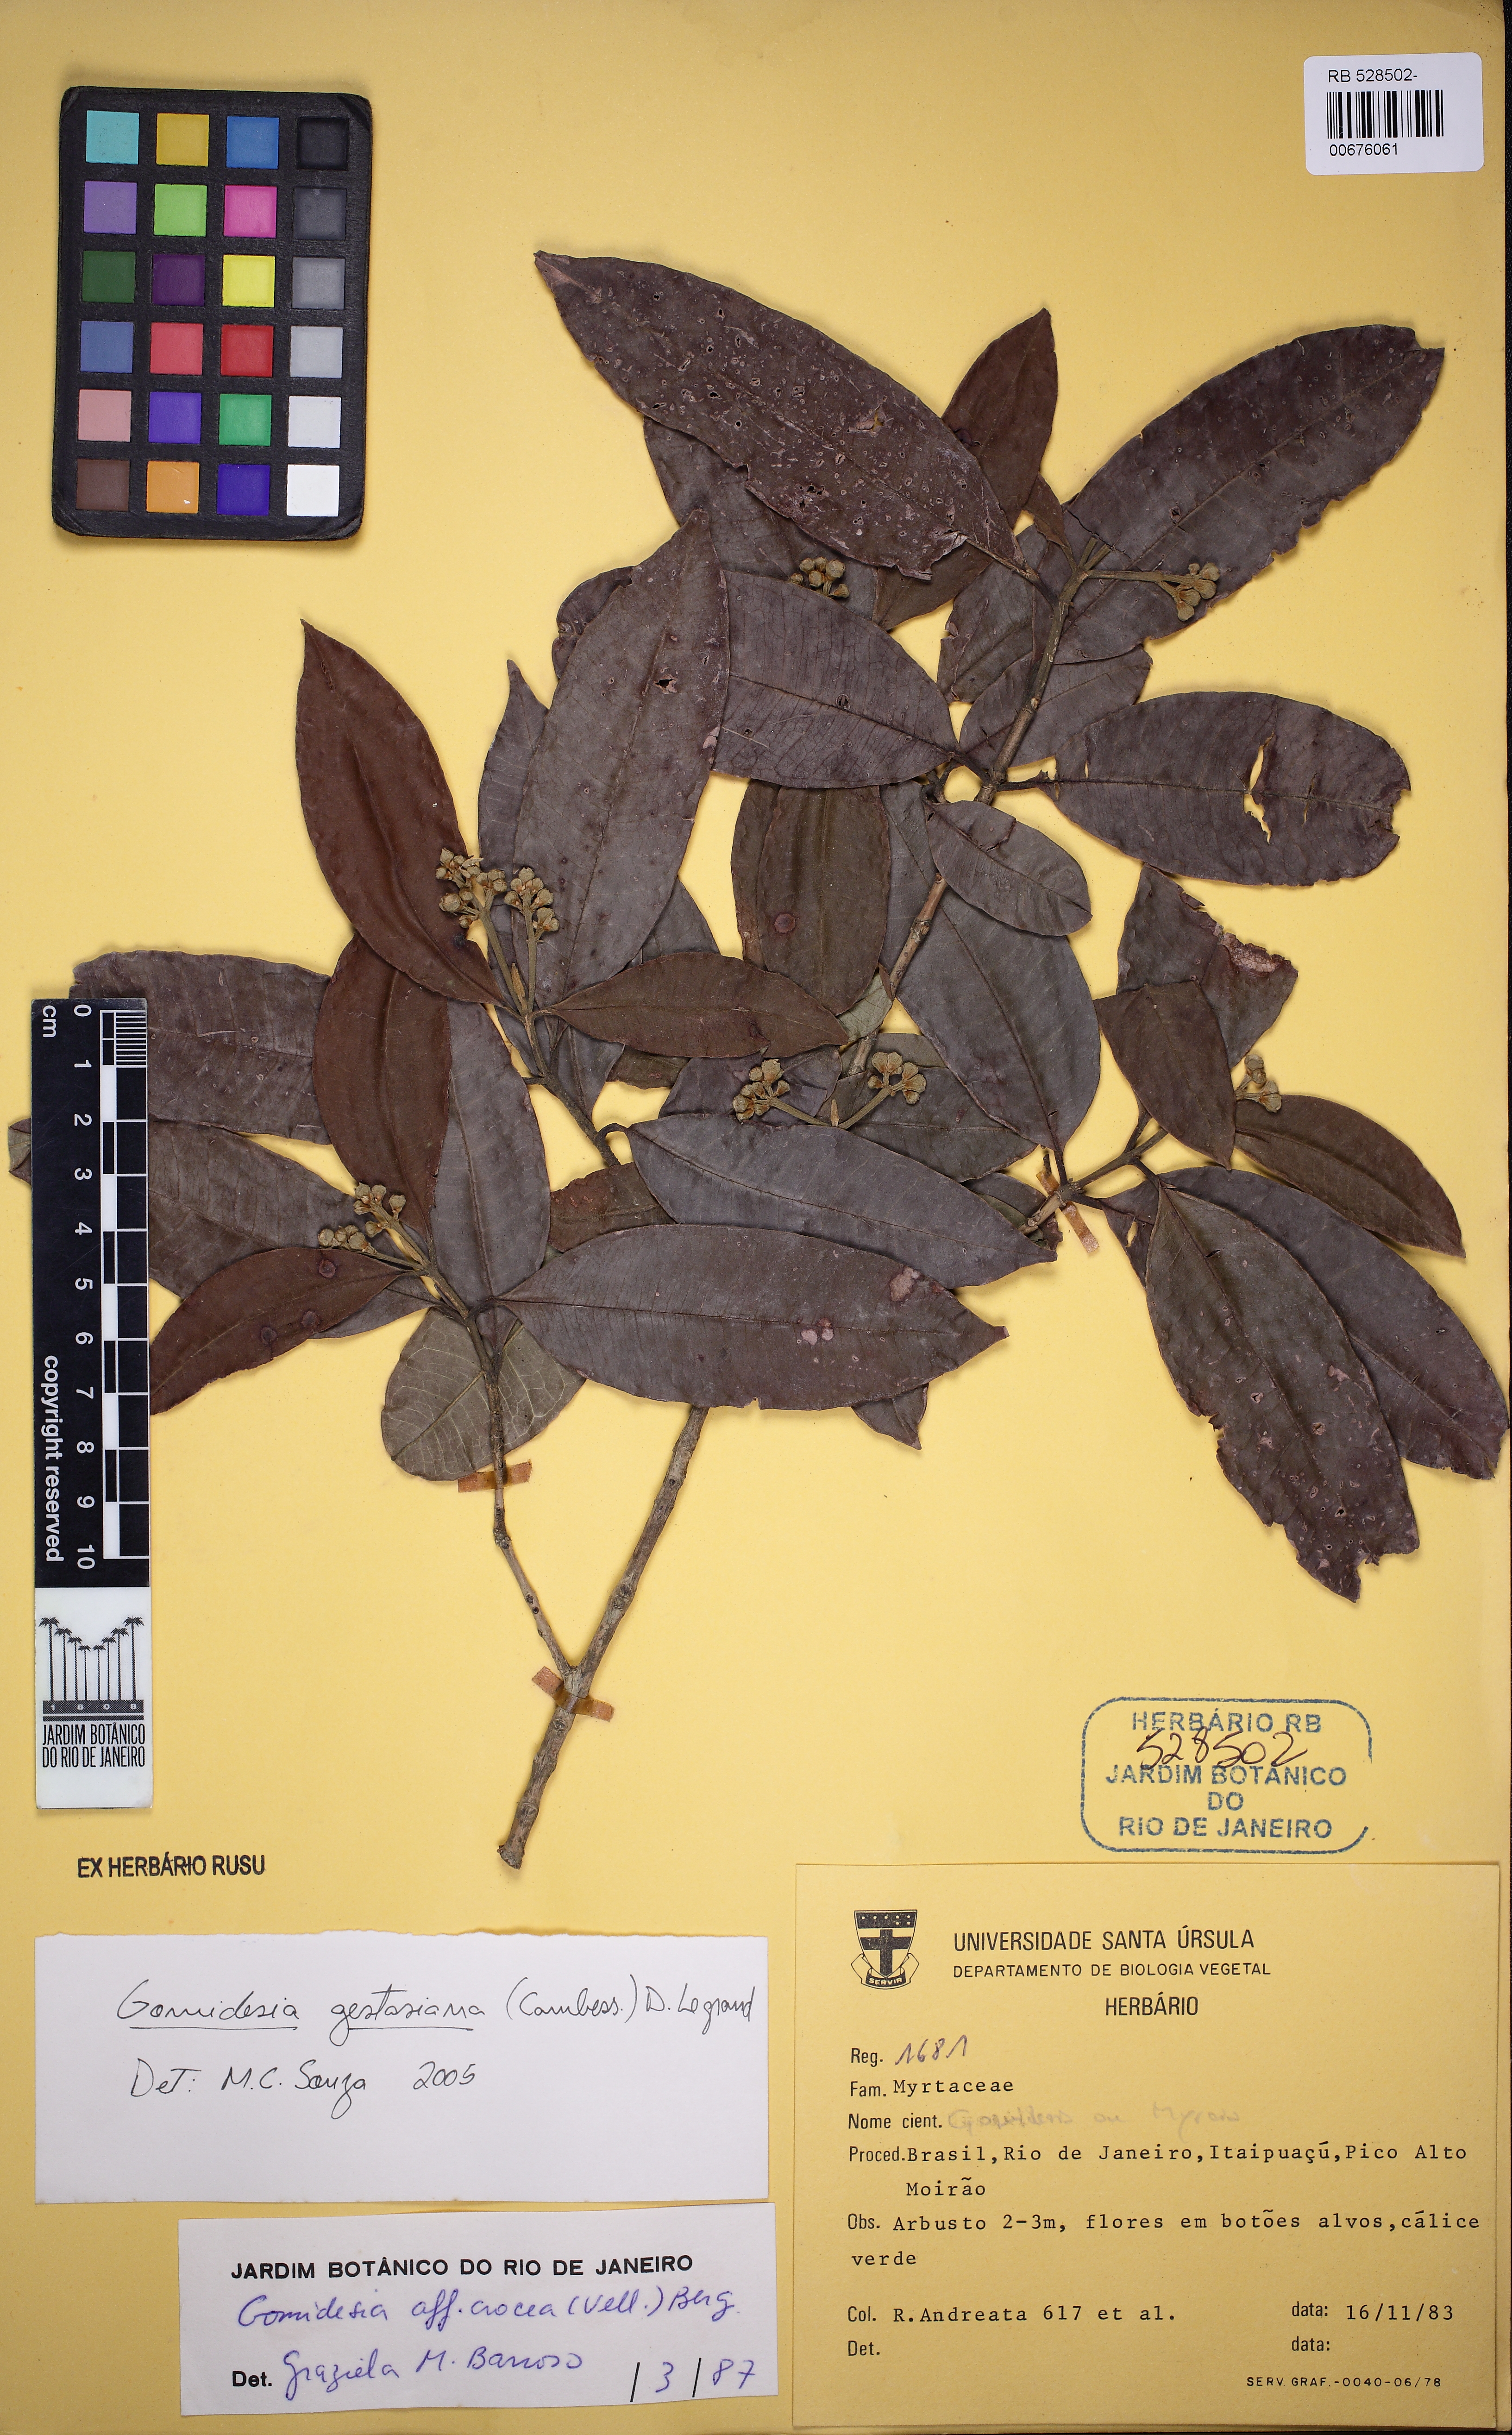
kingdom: Plantae
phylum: Tracheophyta
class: Magnoliopsida
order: Myrtales
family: Myrtaceae
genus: Myrcia
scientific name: Myrcia dolichopetala
